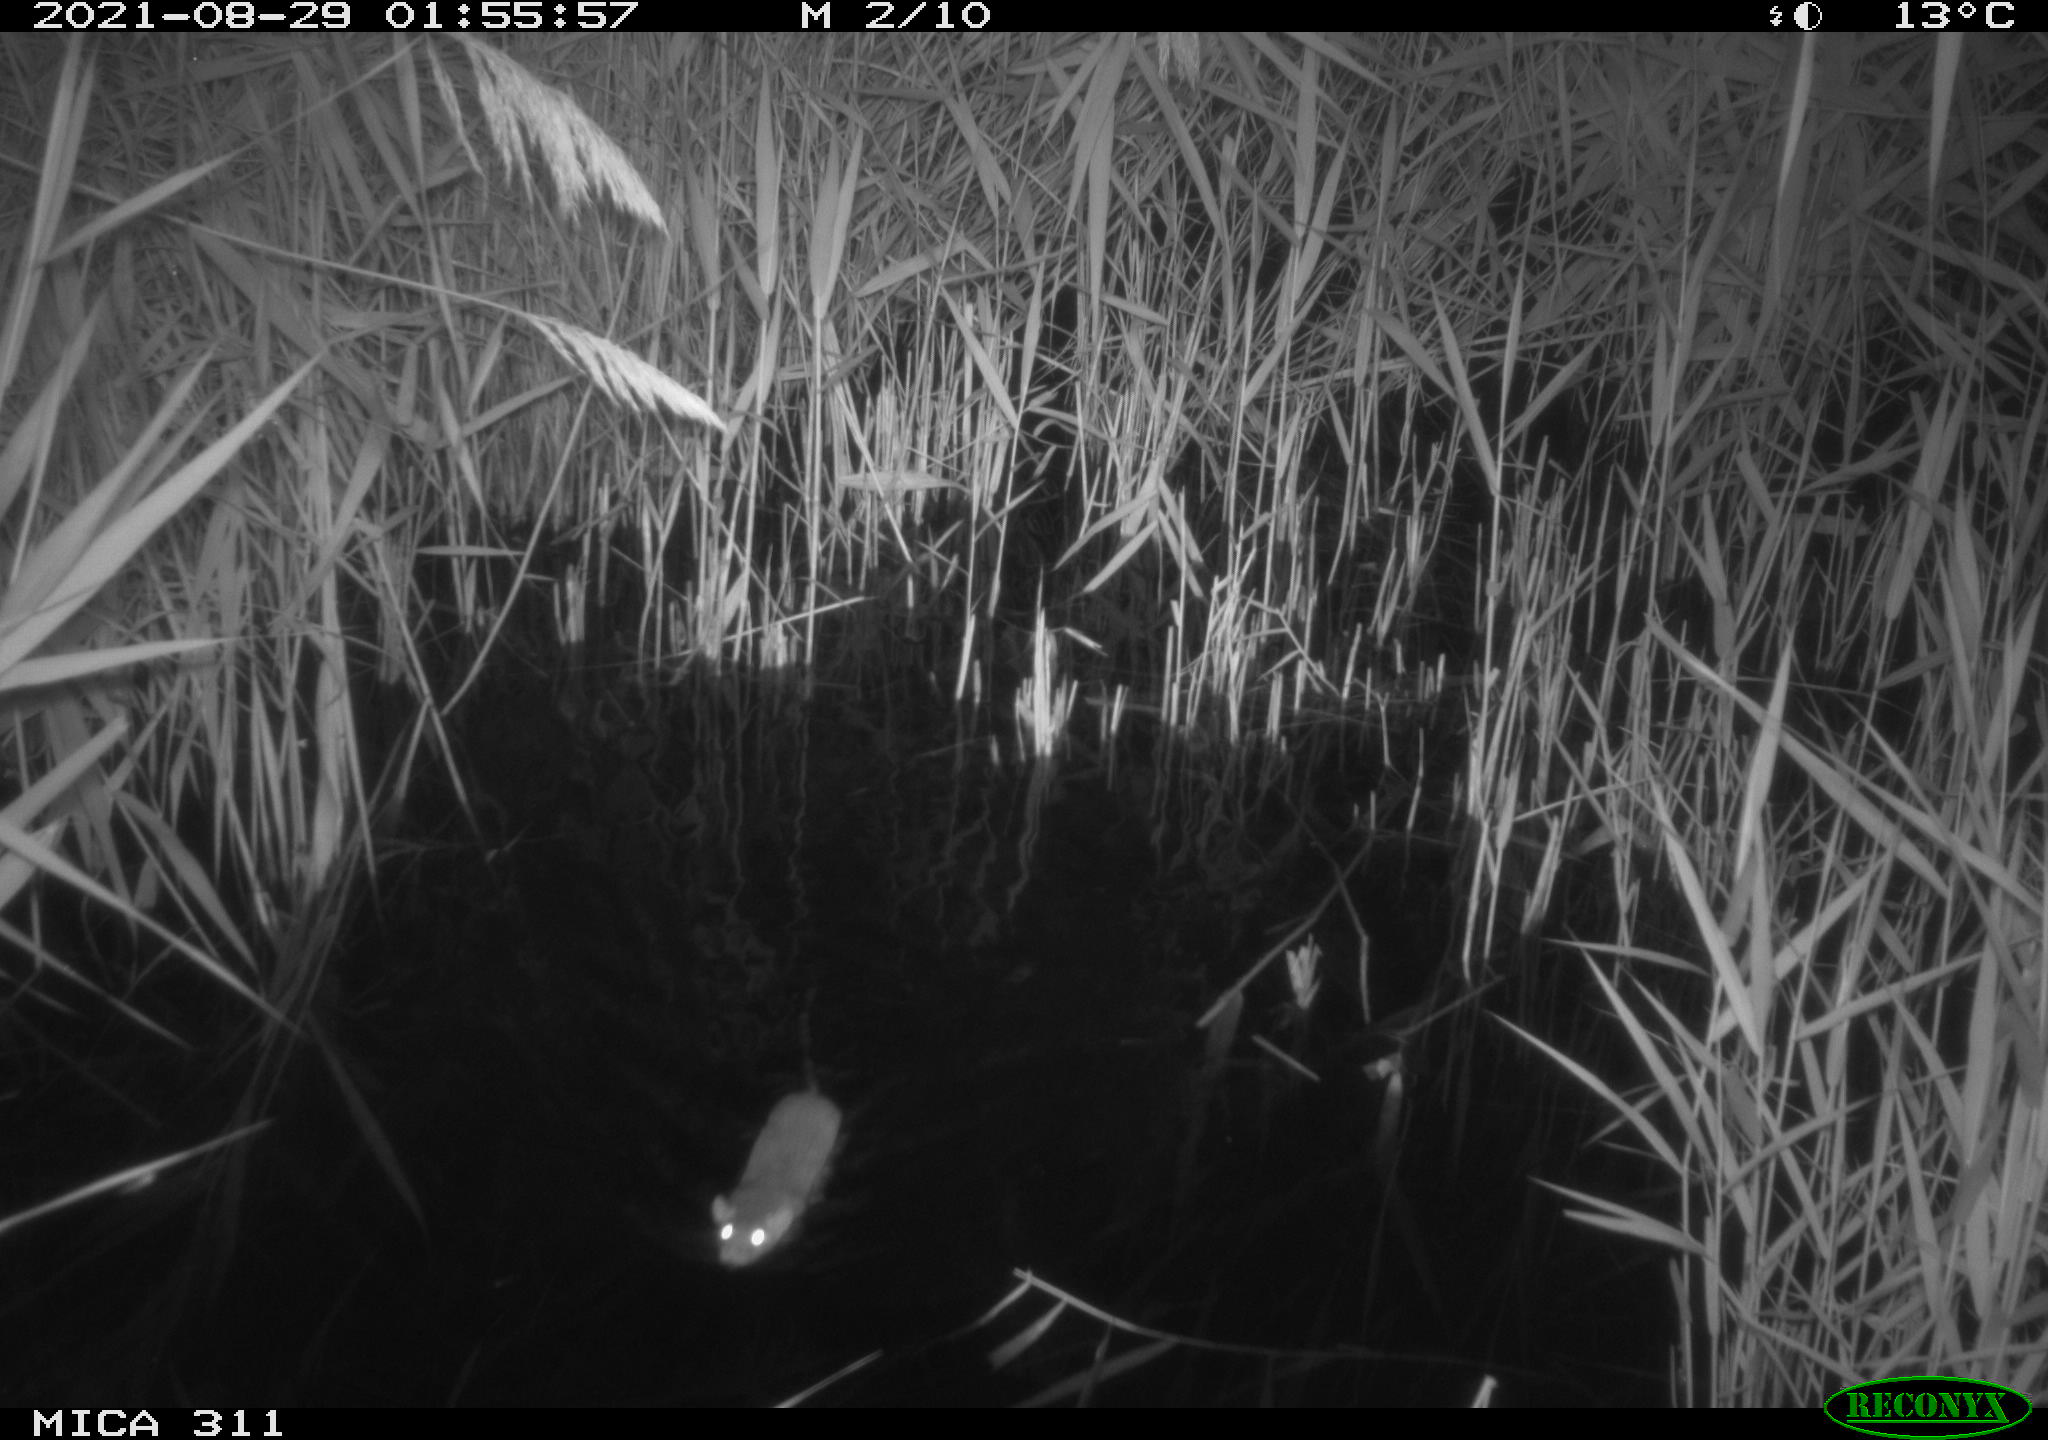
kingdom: Animalia
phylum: Chordata
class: Mammalia
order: Rodentia
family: Muridae
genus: Rattus
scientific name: Rattus norvegicus
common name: Brown rat
